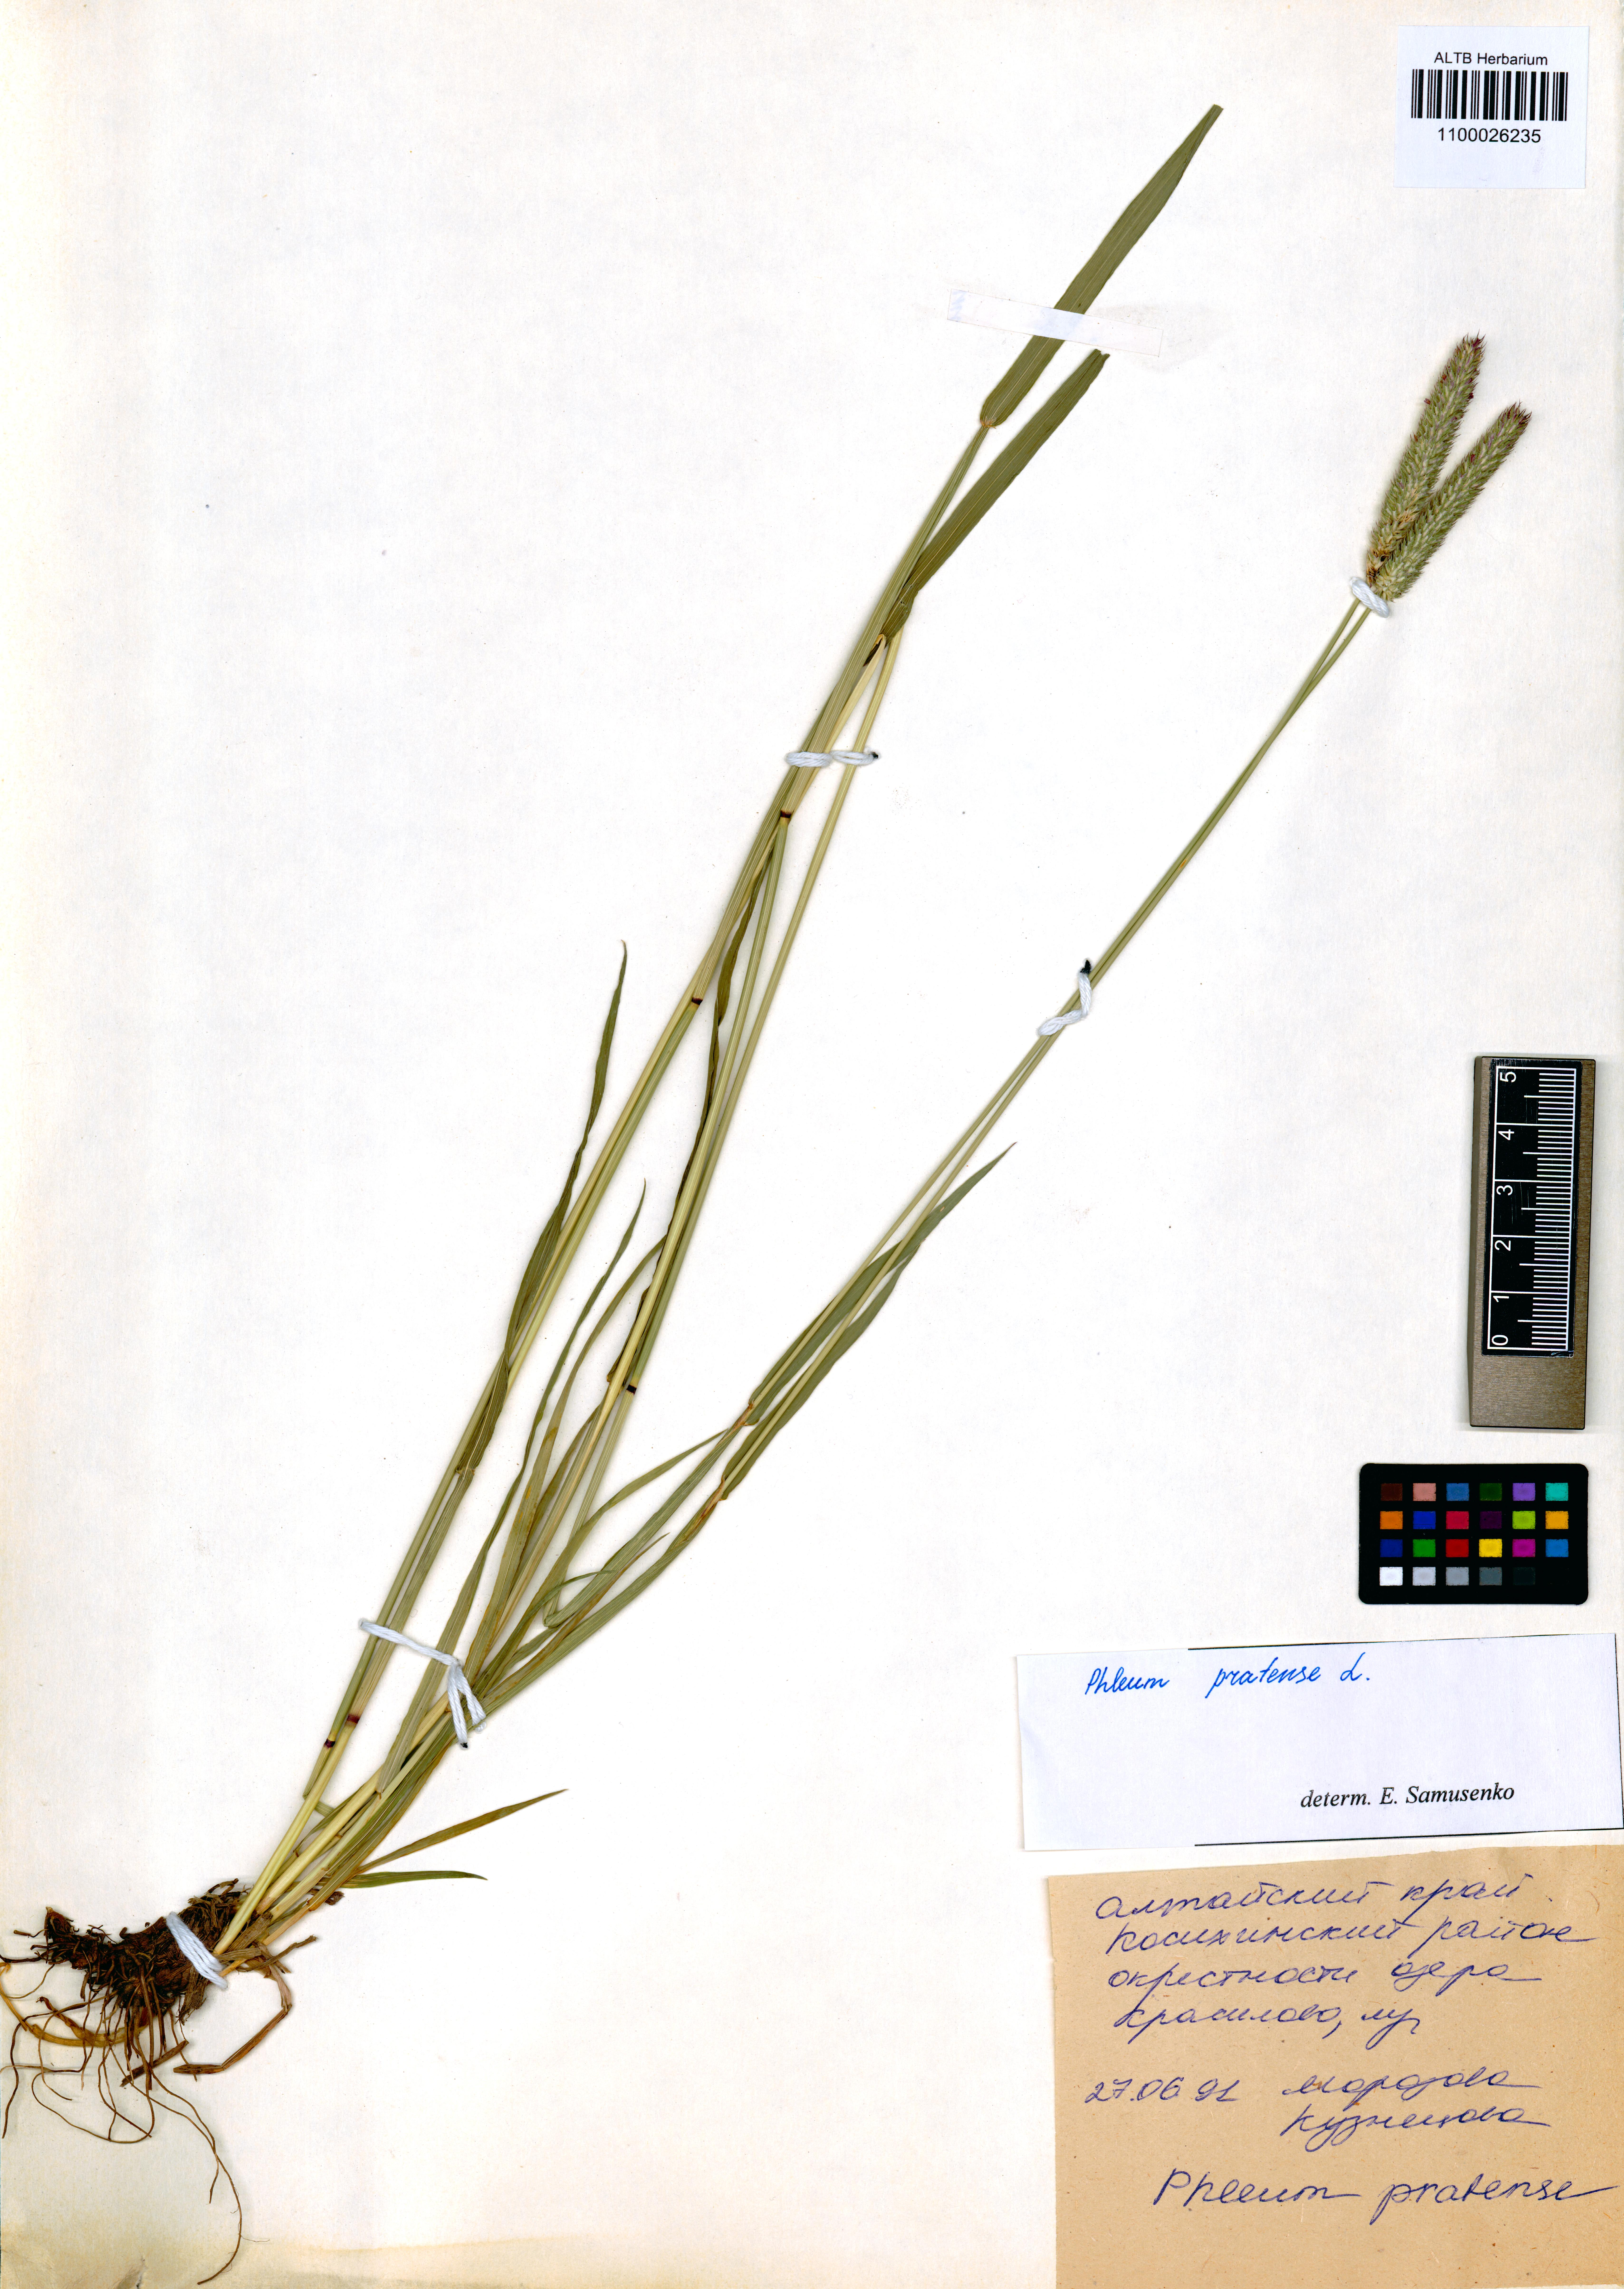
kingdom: Plantae
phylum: Tracheophyta
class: Liliopsida
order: Poales
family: Poaceae
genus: Phleum
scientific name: Phleum pratense
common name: Timothy grass
